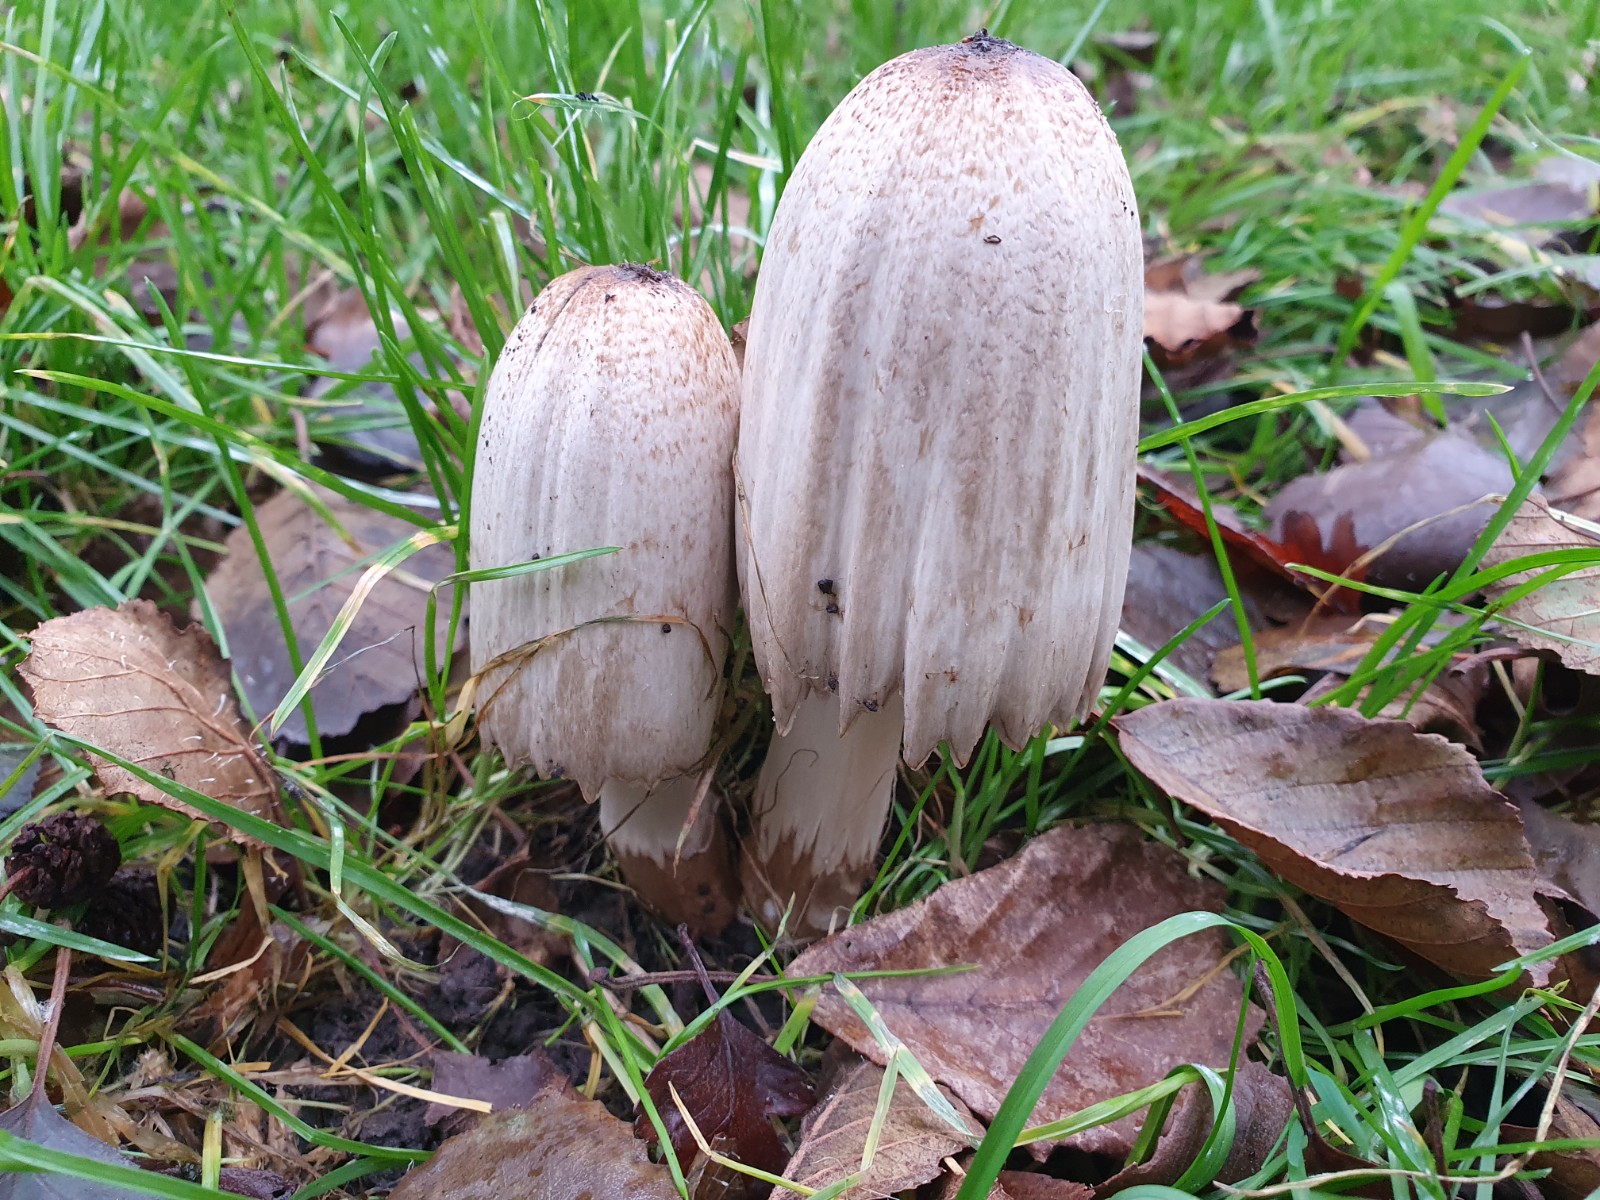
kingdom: Fungi
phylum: Basidiomycota
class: Agaricomycetes
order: Agaricales
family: Psathyrellaceae
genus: Coprinopsis
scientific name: Coprinopsis atramentaria
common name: almindelig blækhat
